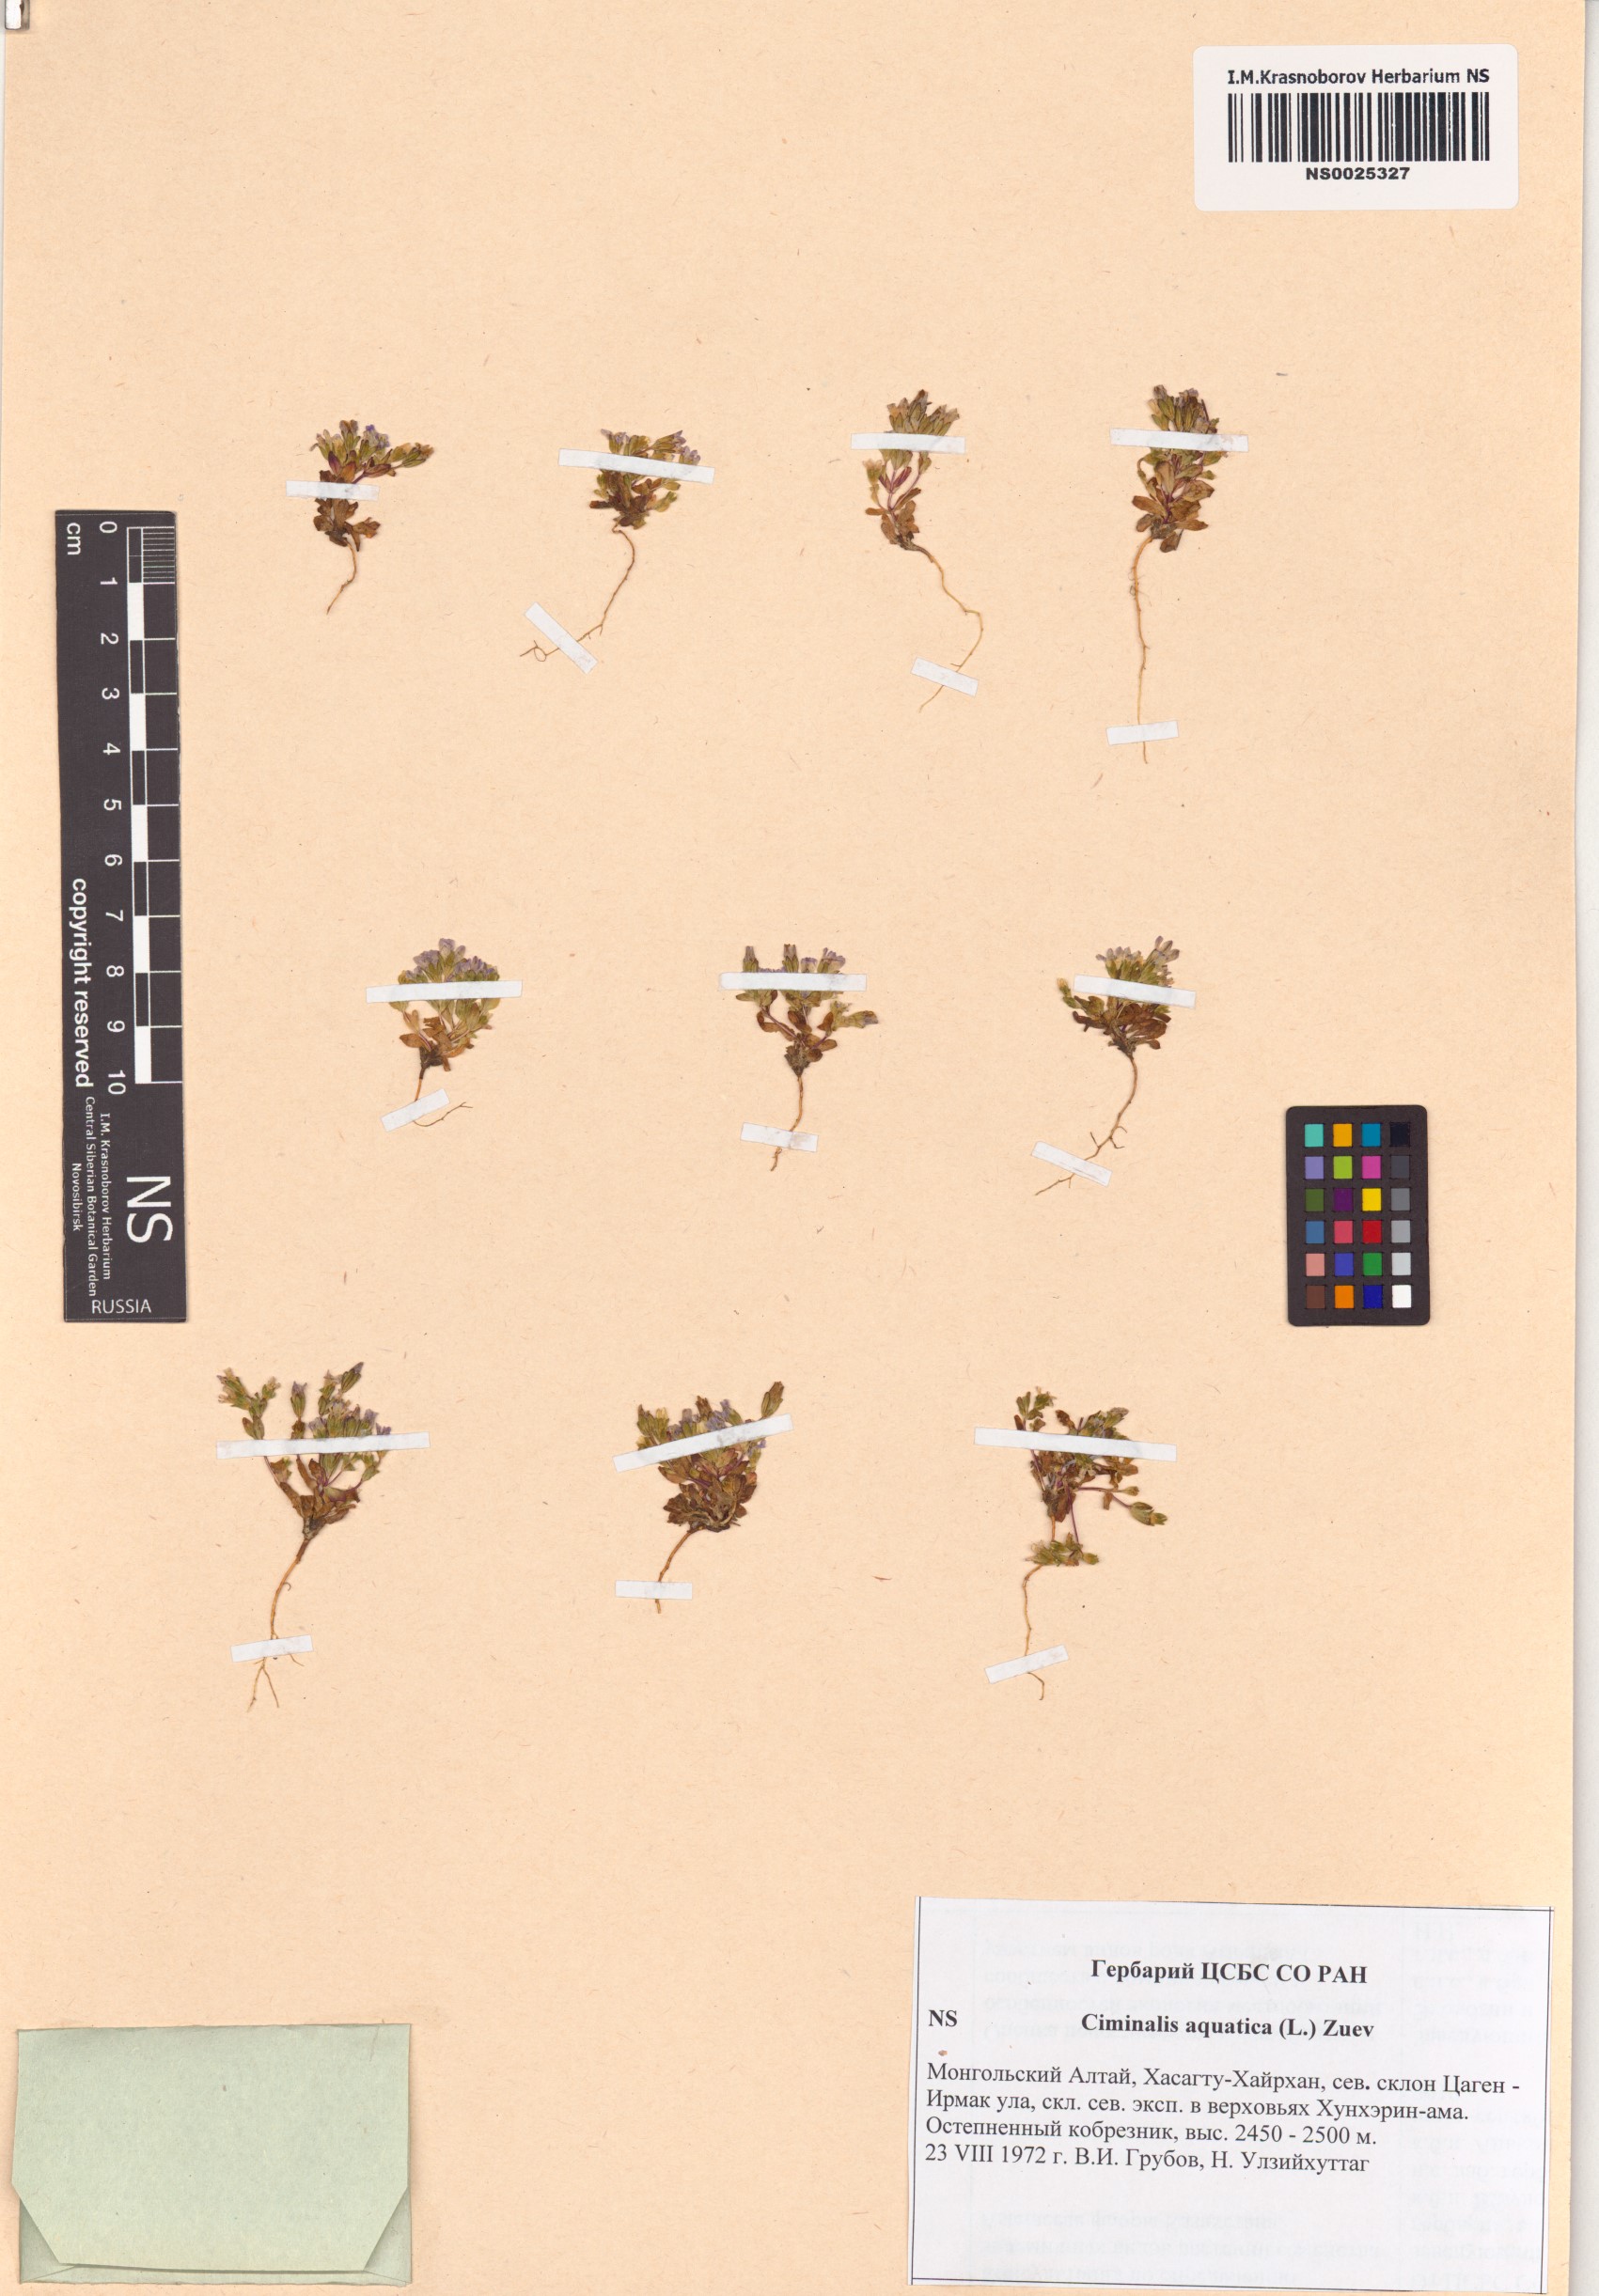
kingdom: Plantae
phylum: Tracheophyta
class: Magnoliopsida
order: Gentianales
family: Gentianaceae
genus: Gentiana
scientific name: Gentiana aquatica
